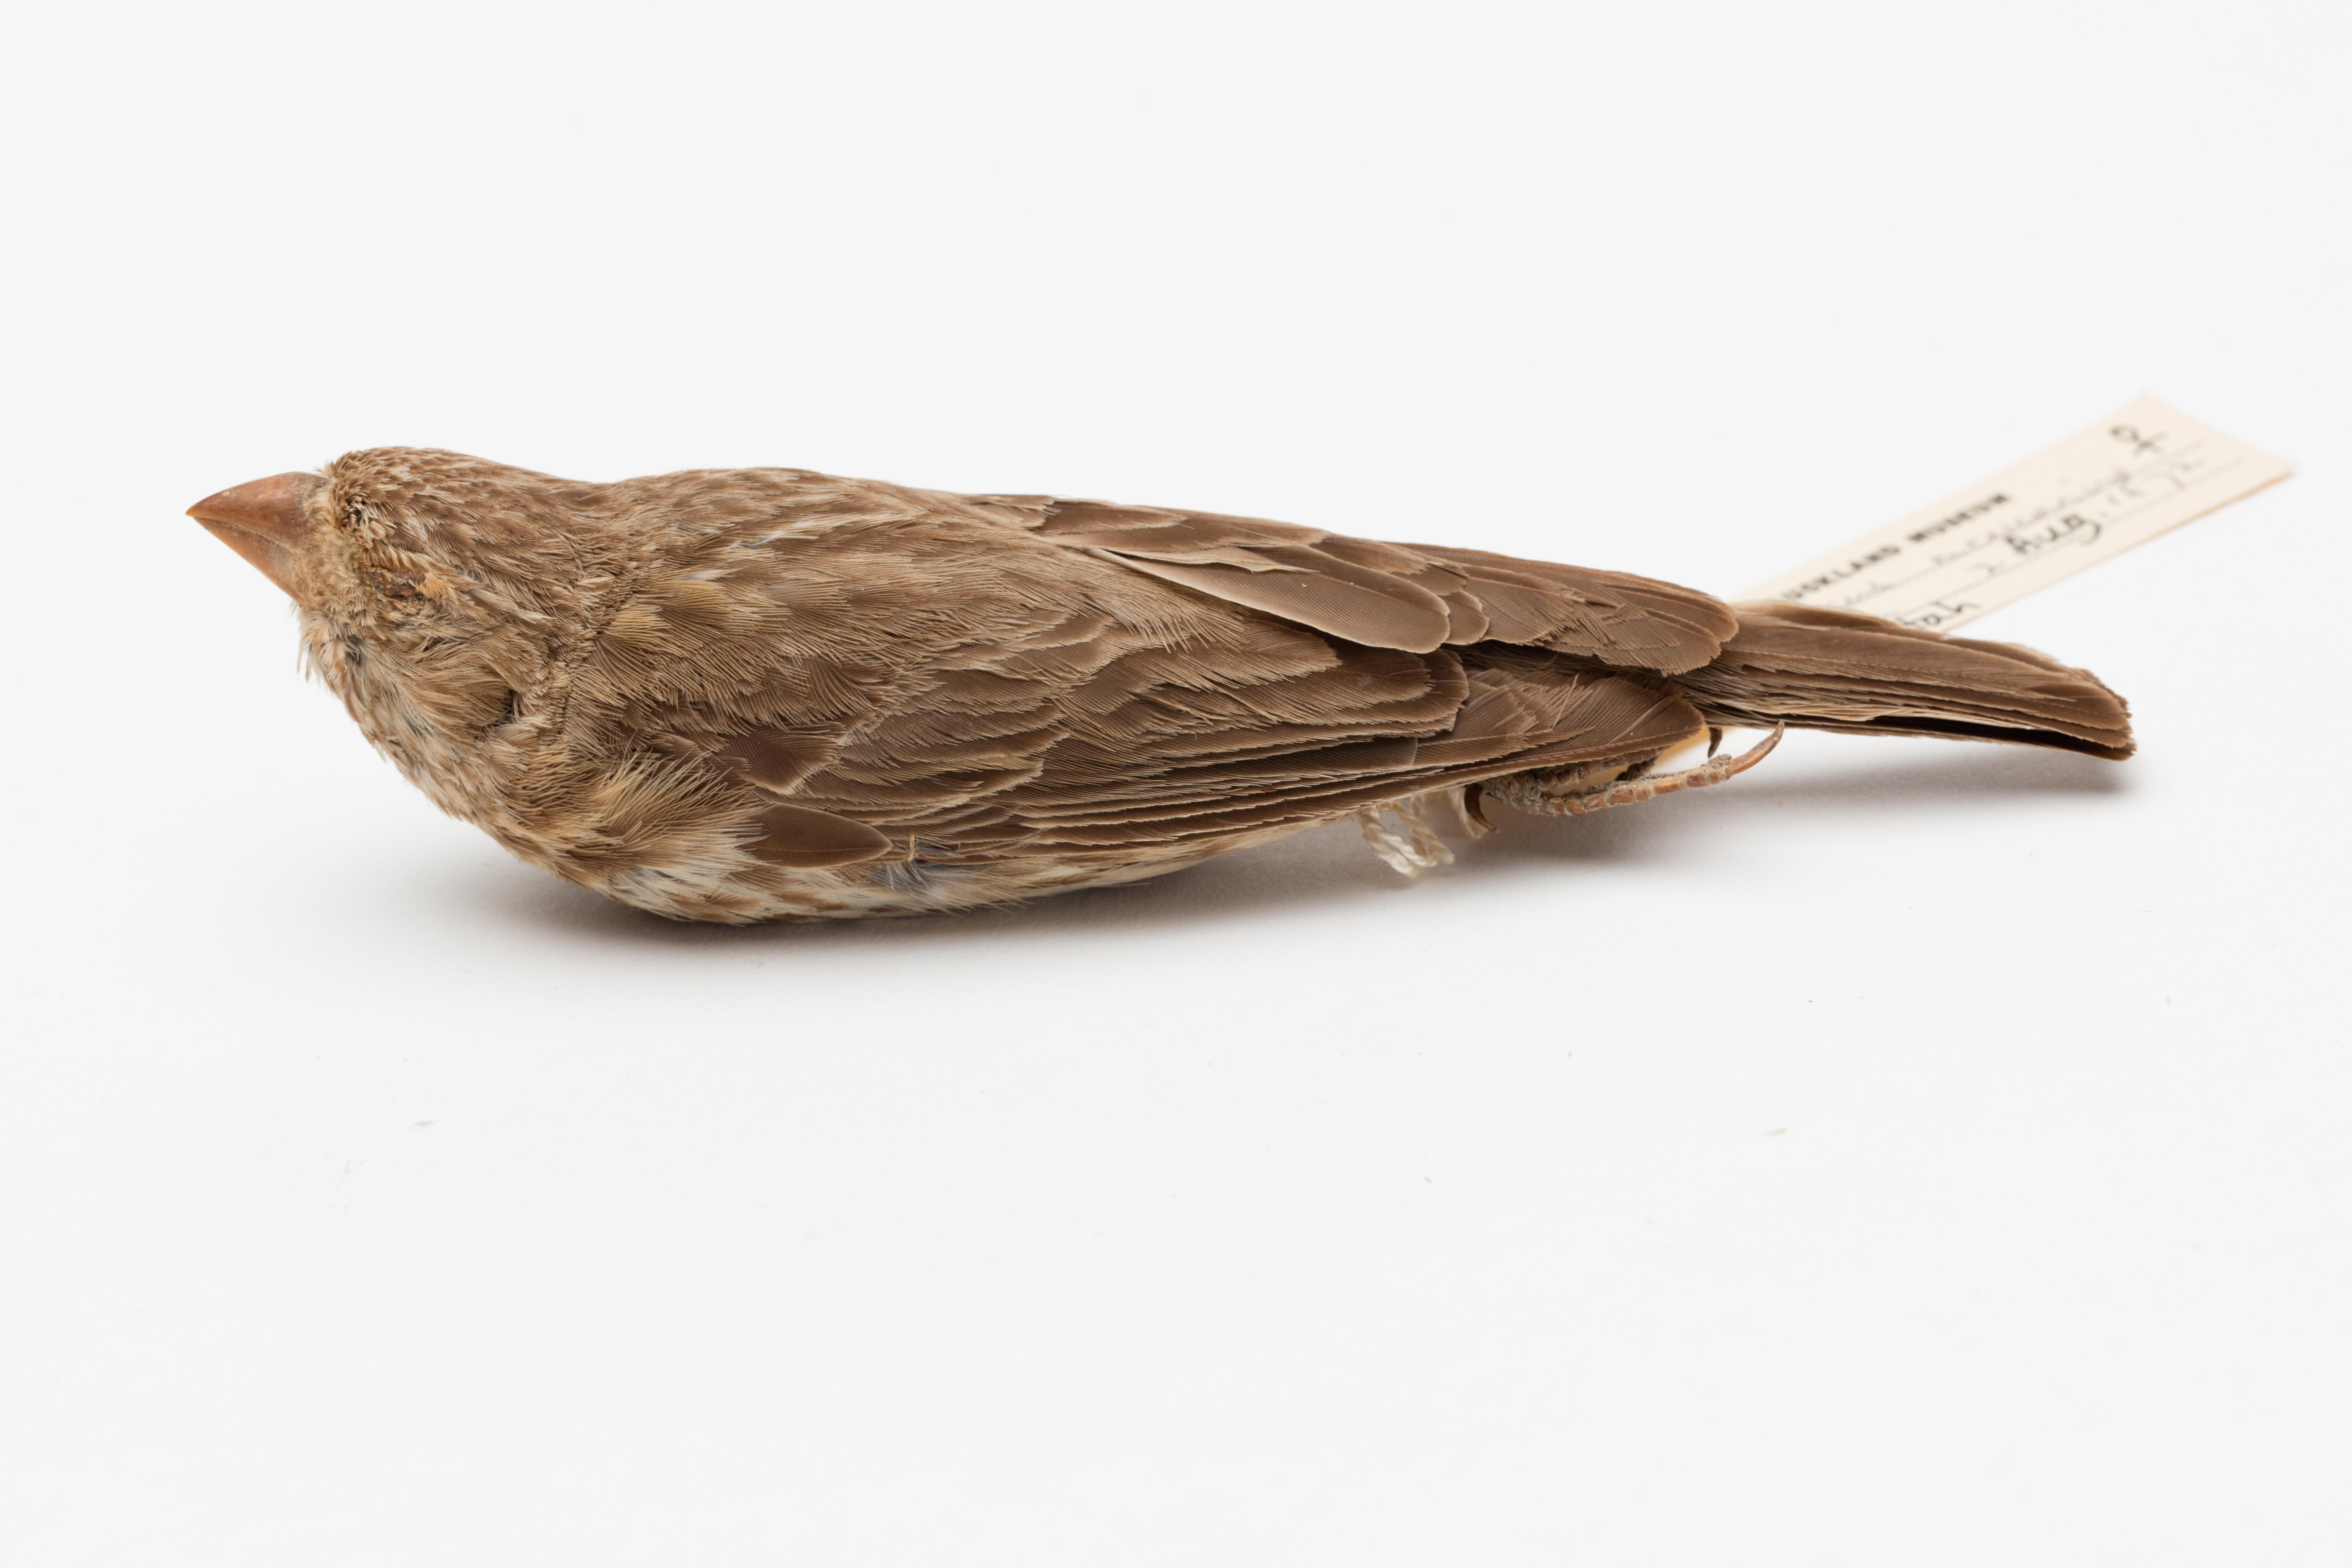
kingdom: Animalia
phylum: Chordata
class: Aves
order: Passeriformes
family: Fringillidae
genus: Haemorhous
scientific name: Haemorhous mexicanus
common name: House finch
